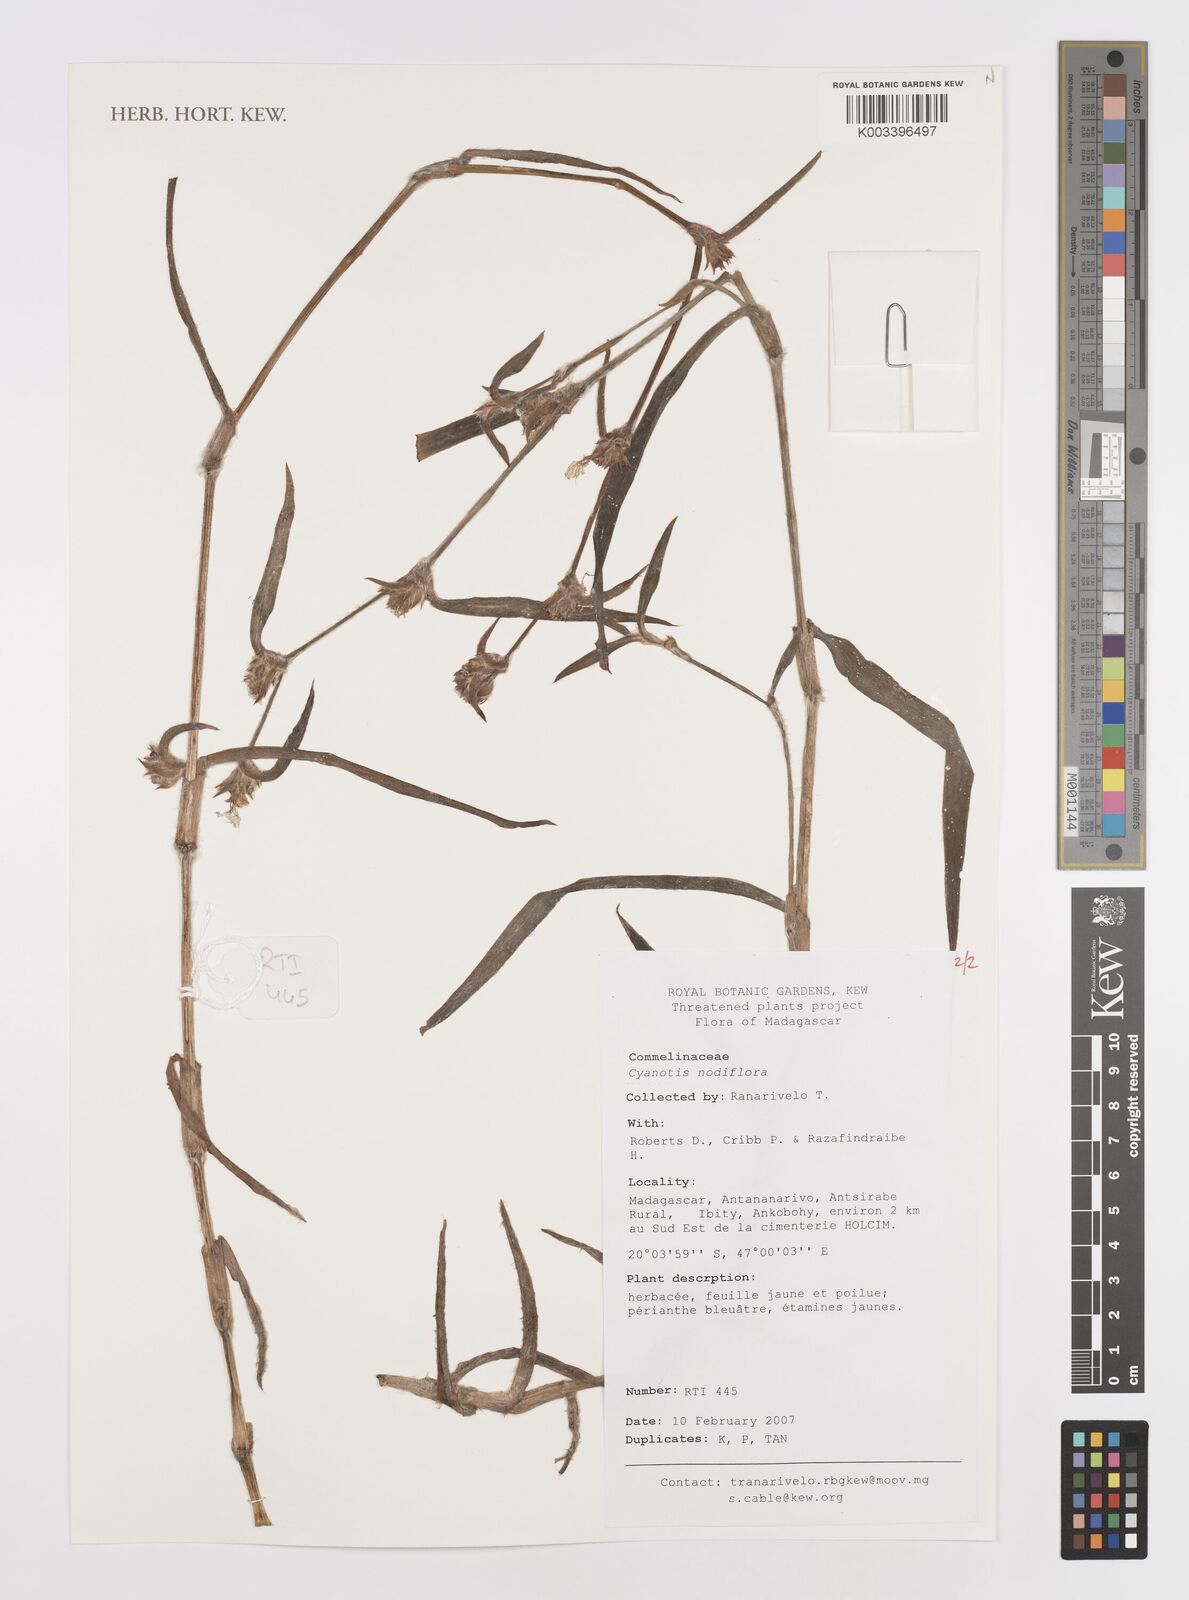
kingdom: Plantae
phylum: Tracheophyta
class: Liliopsida
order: Commelinales
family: Commelinaceae
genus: Cyanotis
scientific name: Cyanotis speciosa
